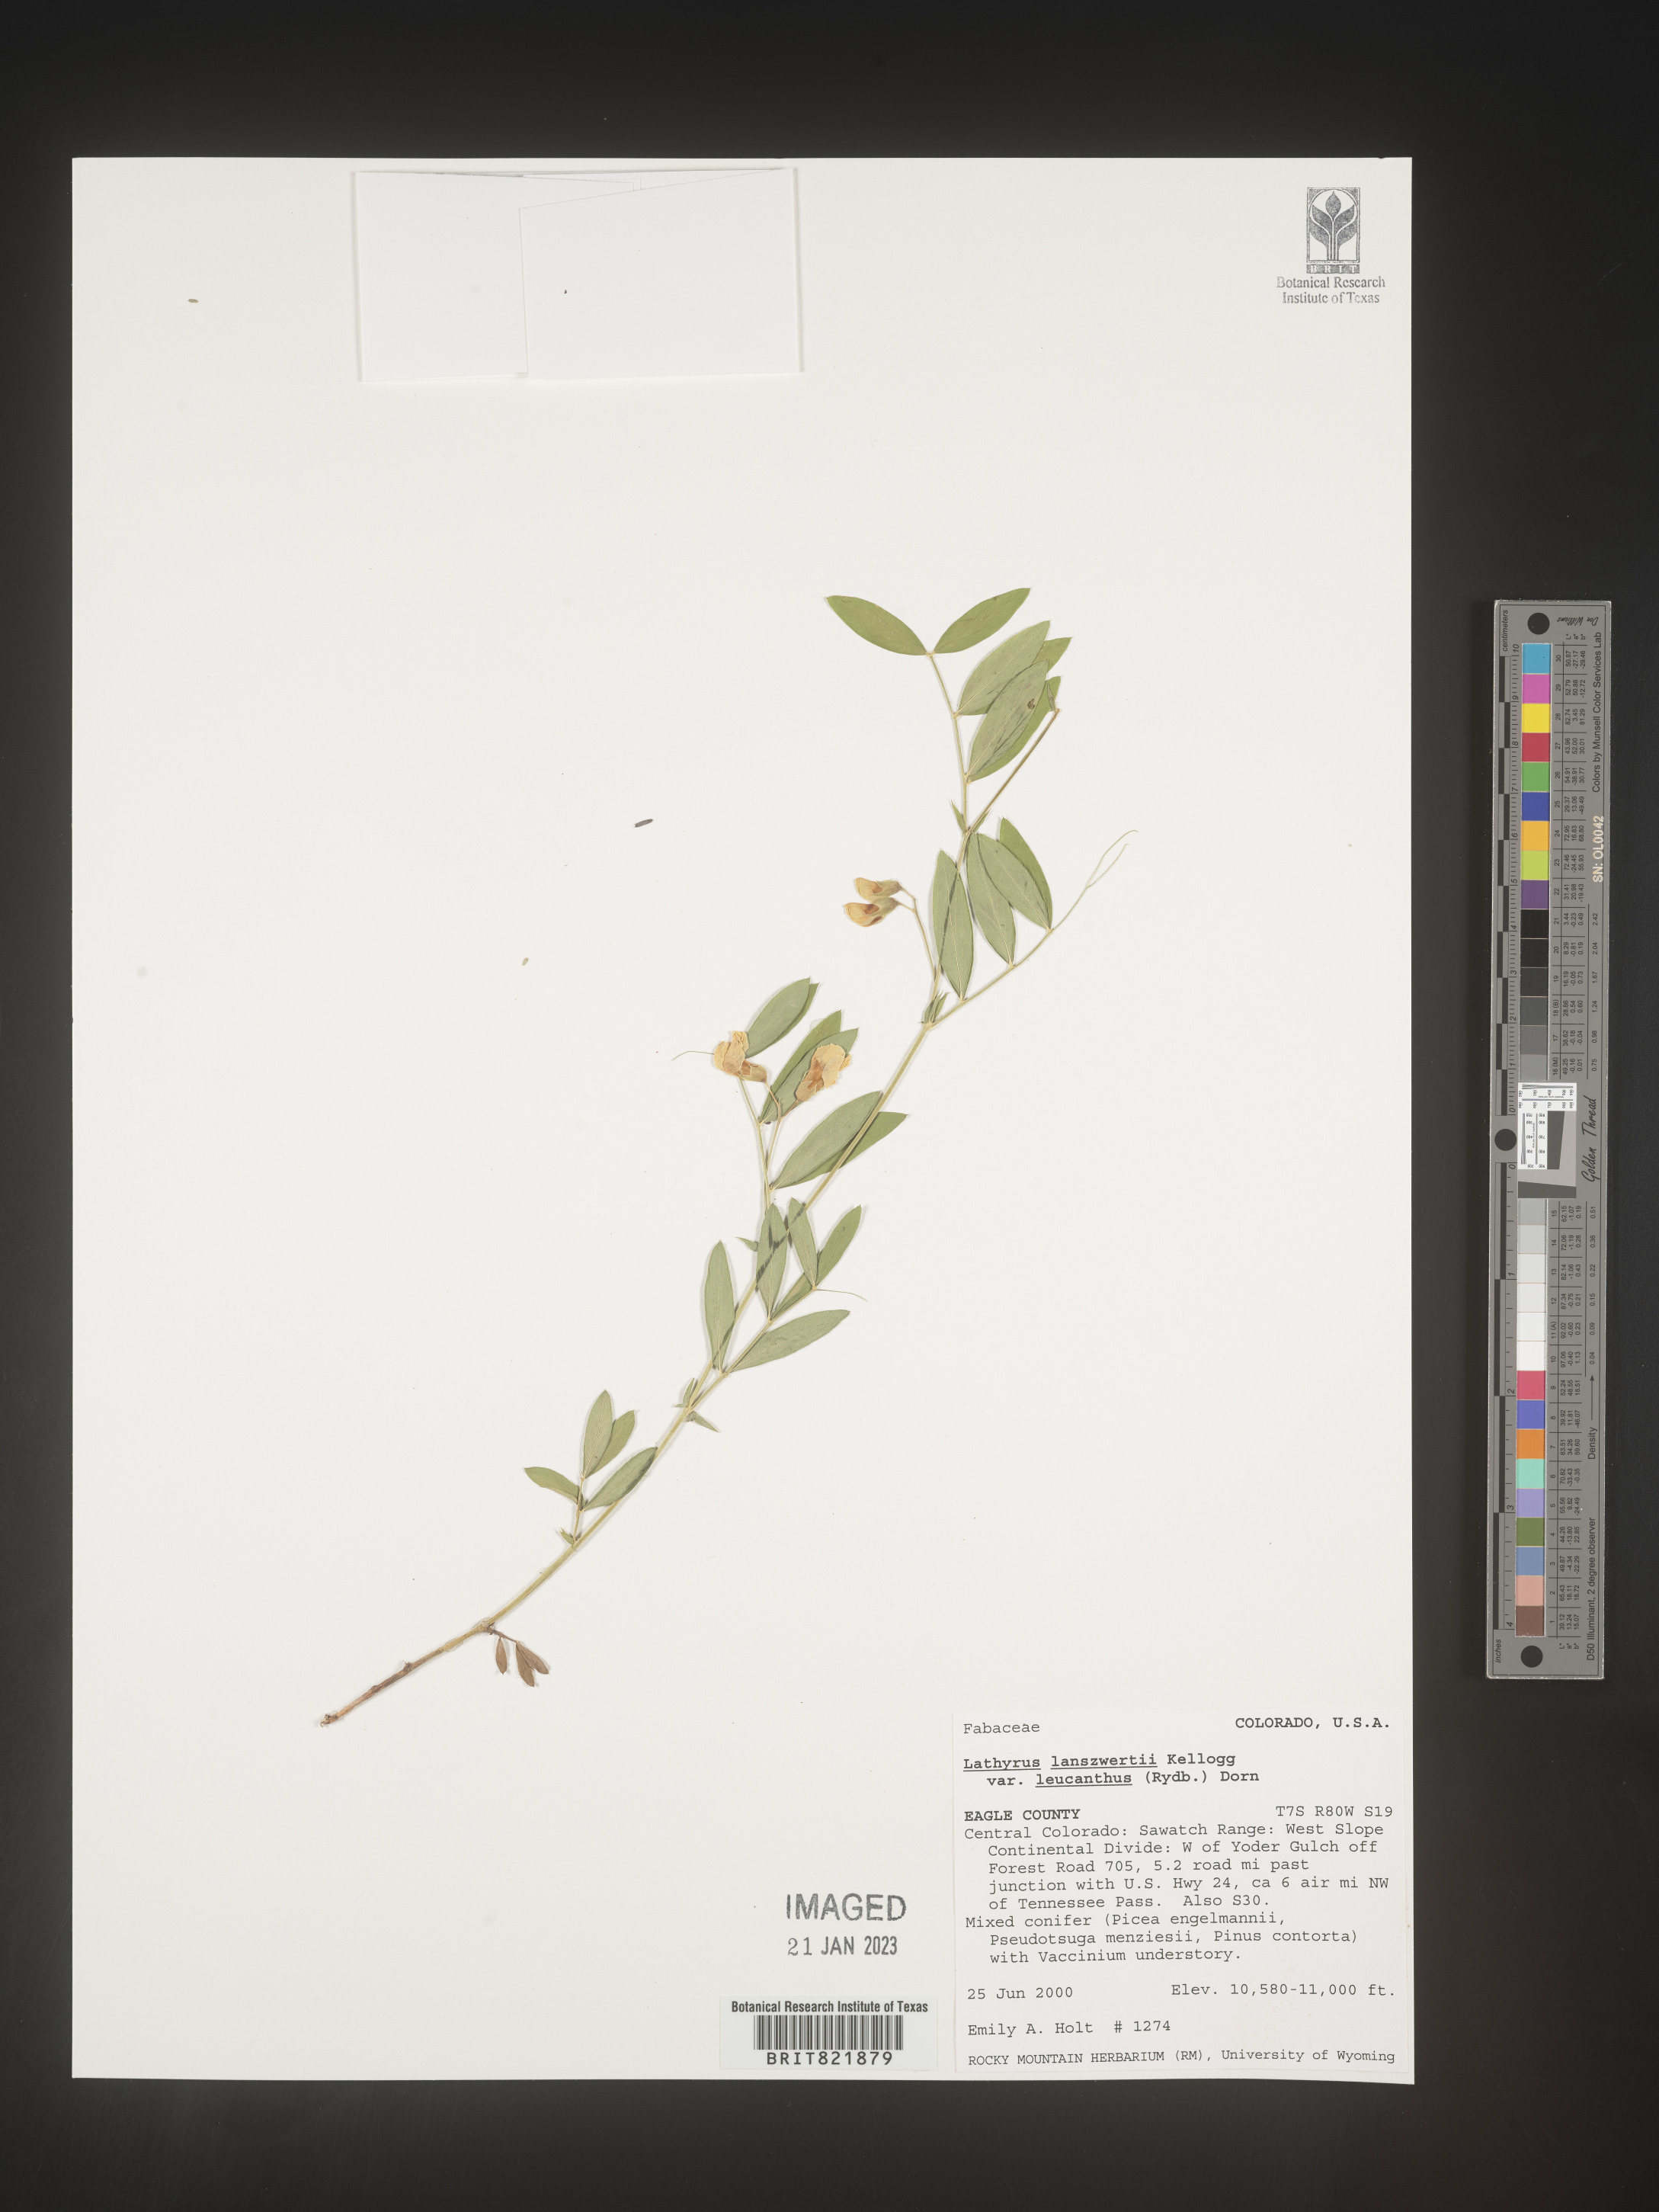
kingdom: Plantae
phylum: Tracheophyta
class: Magnoliopsida
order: Fabales
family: Fabaceae
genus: Lathyrus
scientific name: Lathyrus
